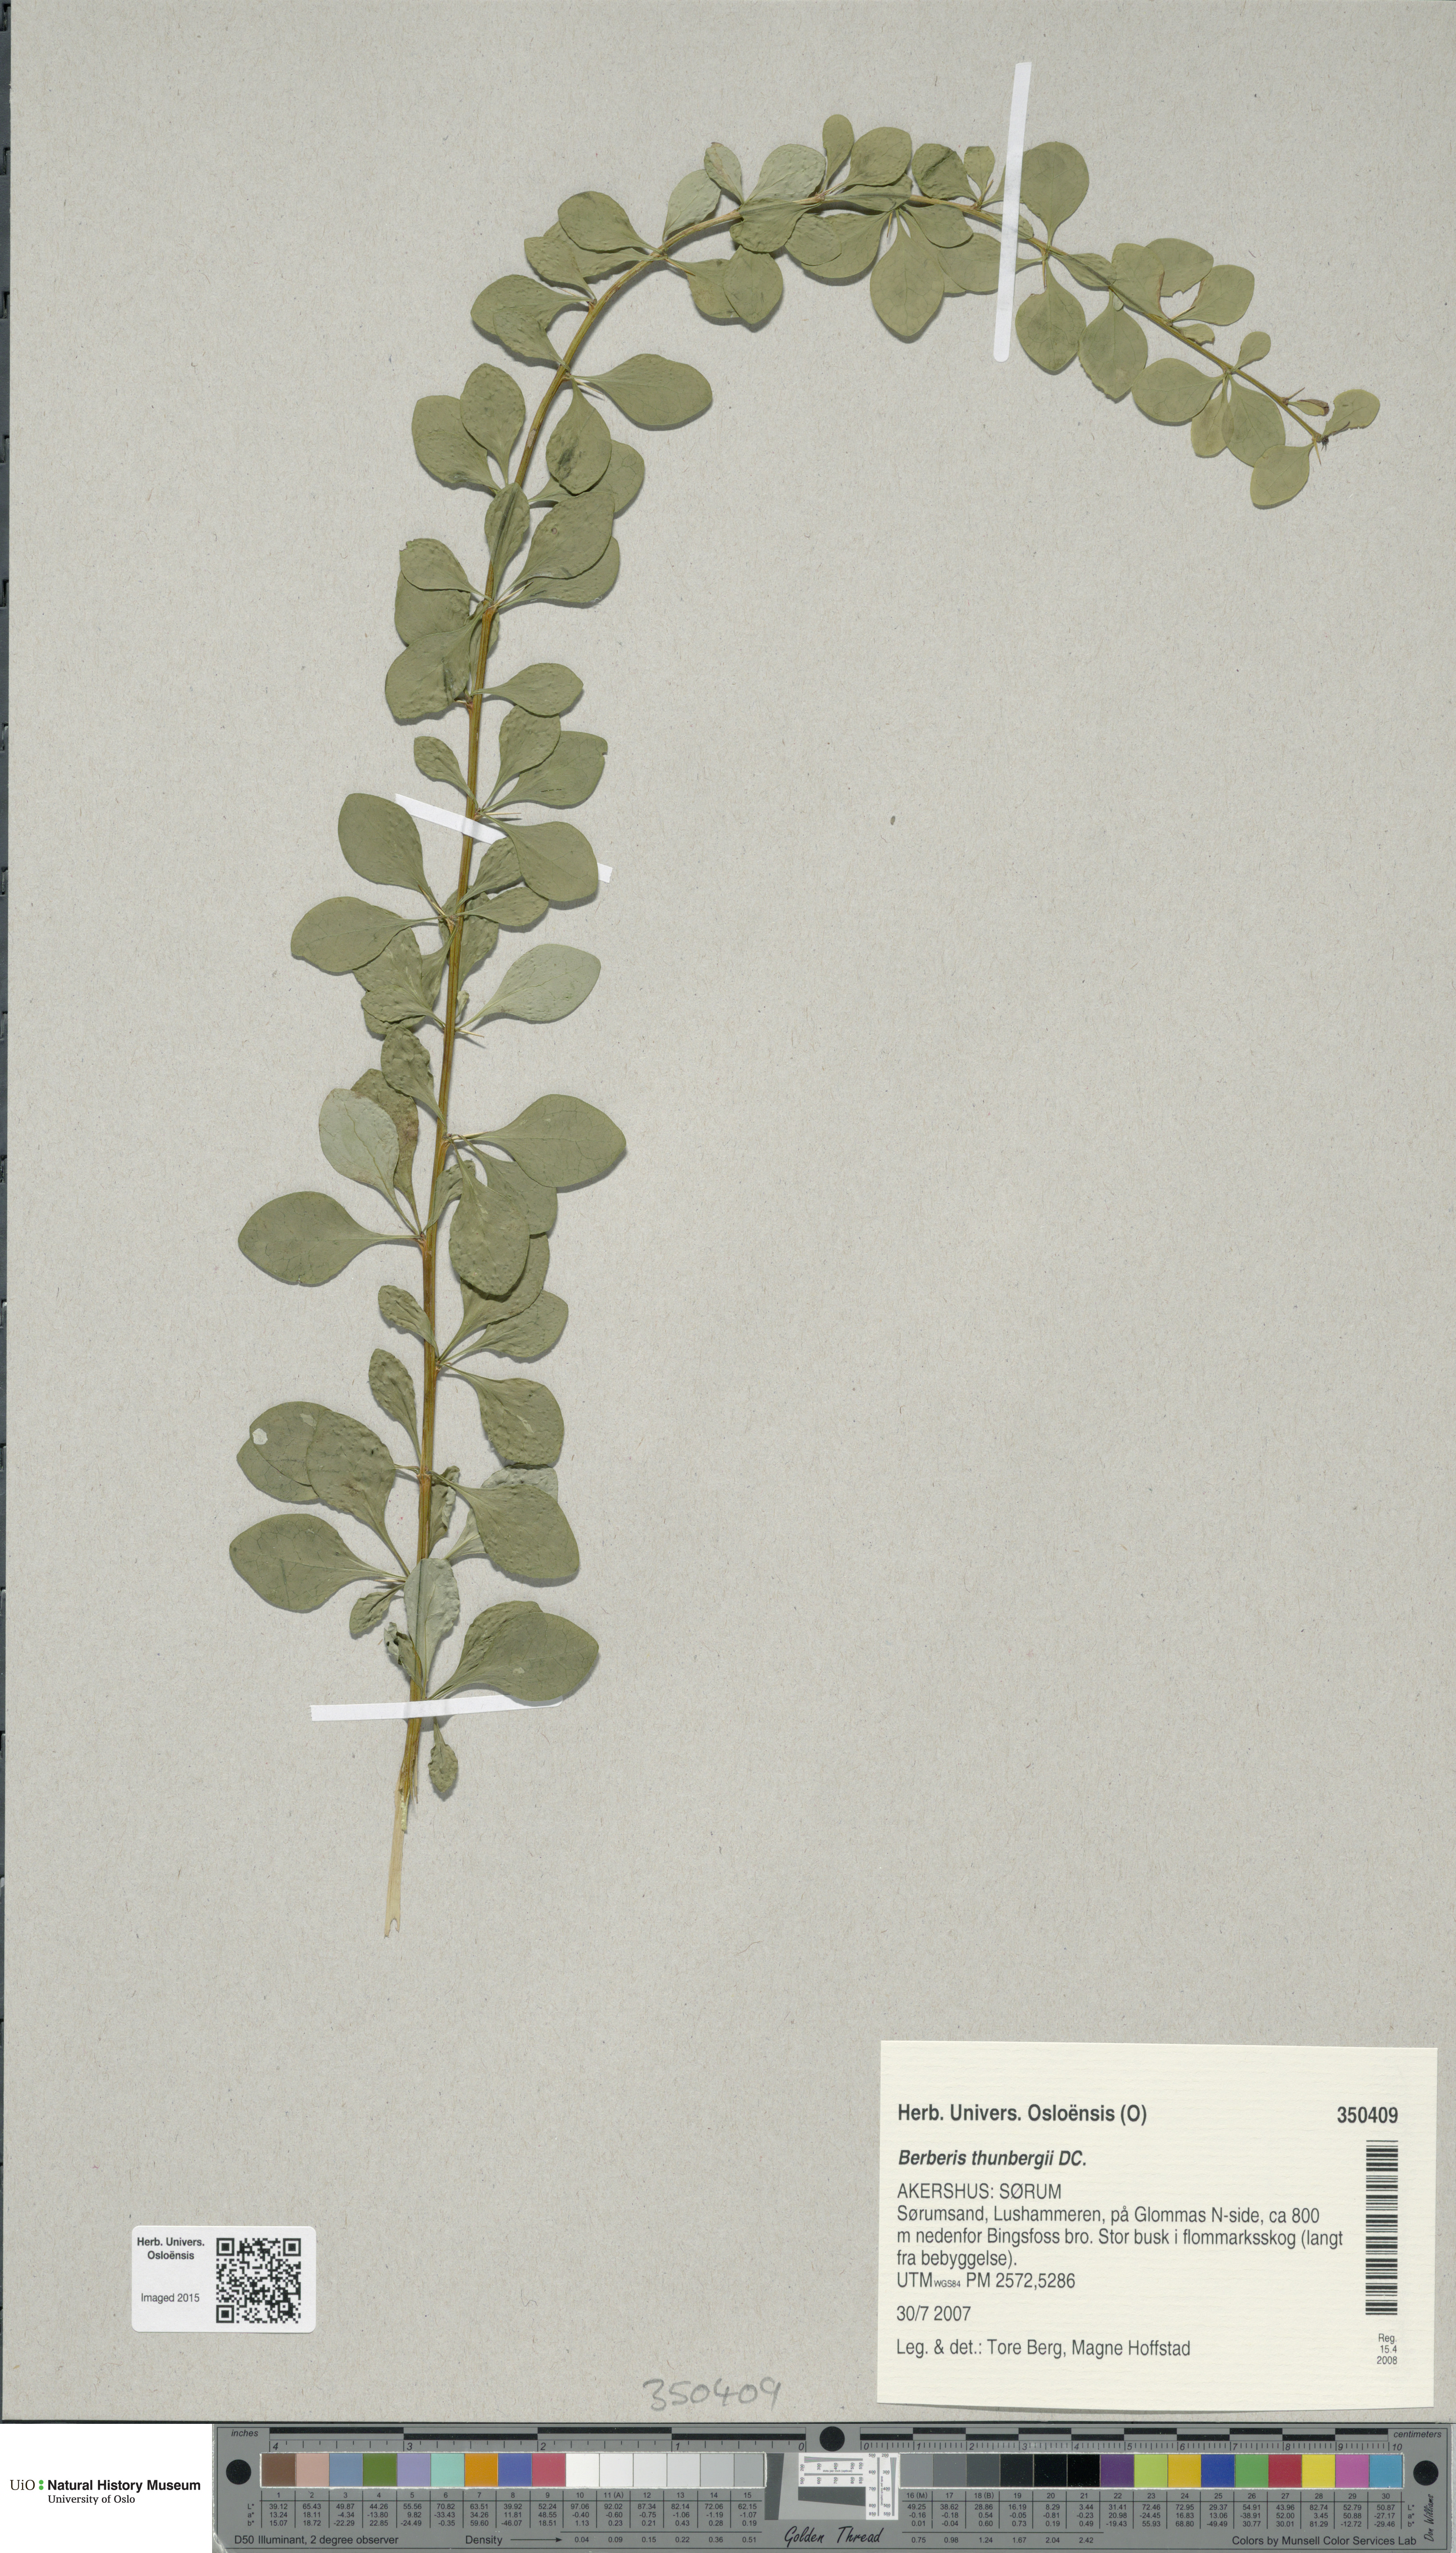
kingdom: Plantae
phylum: Tracheophyta
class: Magnoliopsida
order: Ranunculales
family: Berberidaceae
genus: Berberis
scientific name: Berberis thunbergii
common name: Japanese barberry
